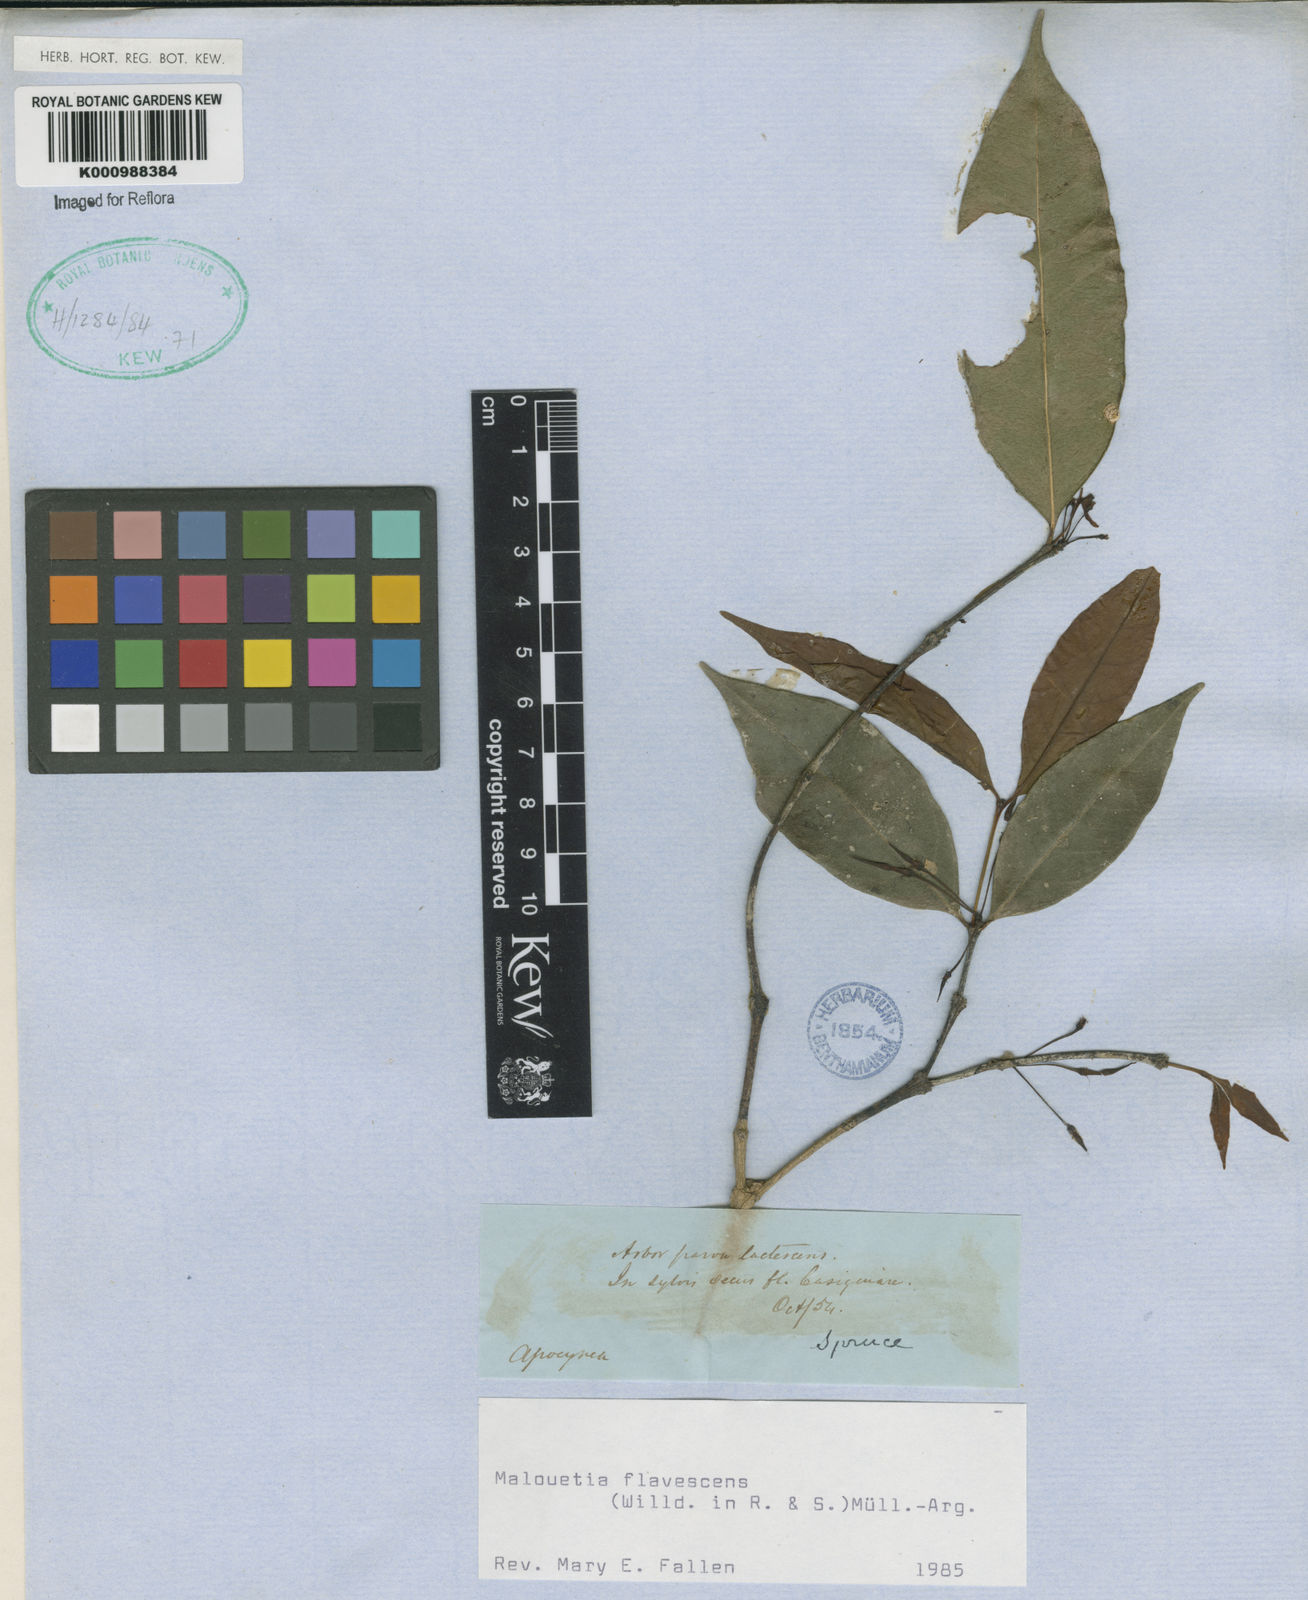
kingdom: Plantae
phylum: Tracheophyta
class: Magnoliopsida
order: Gentianales
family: Apocynaceae
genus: Malouetia
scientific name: Malouetia
